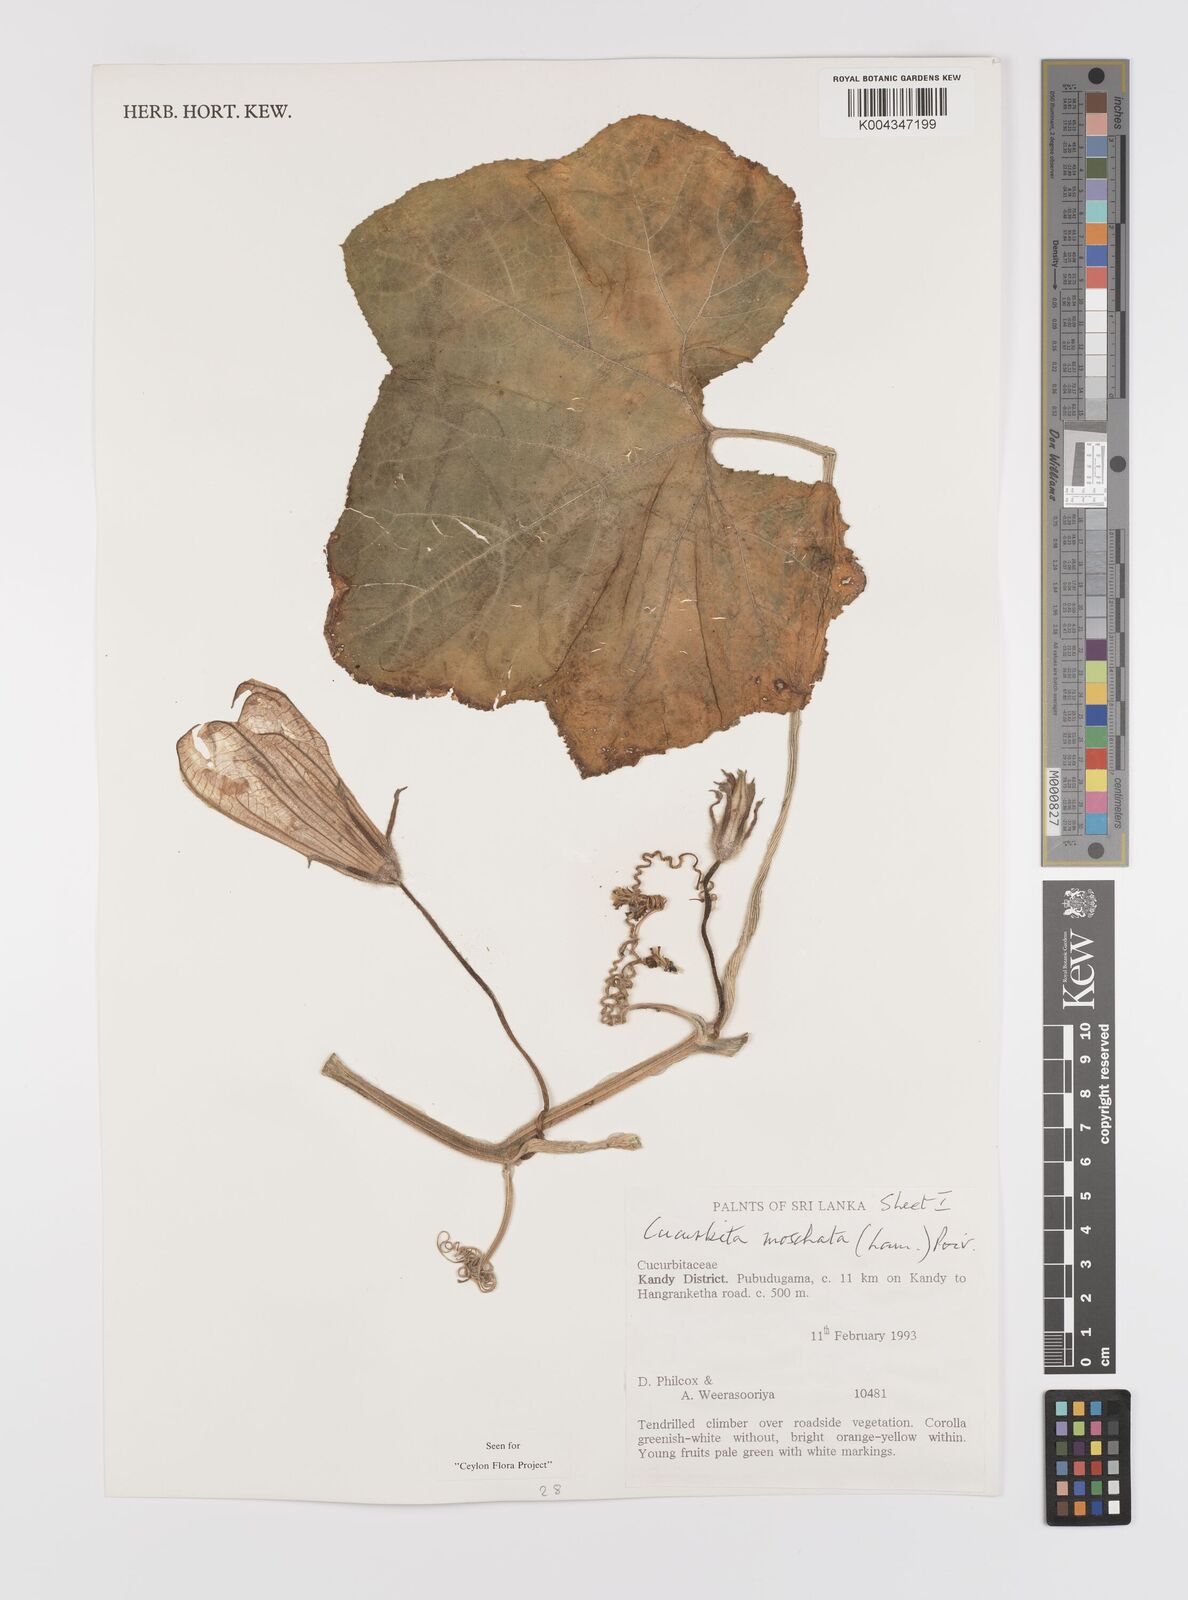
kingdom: Plantae
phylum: Tracheophyta
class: Magnoliopsida
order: Cucurbitales
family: Cucurbitaceae
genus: Cucurbita
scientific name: Cucurbita moschata
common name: Squash / pumpkin
